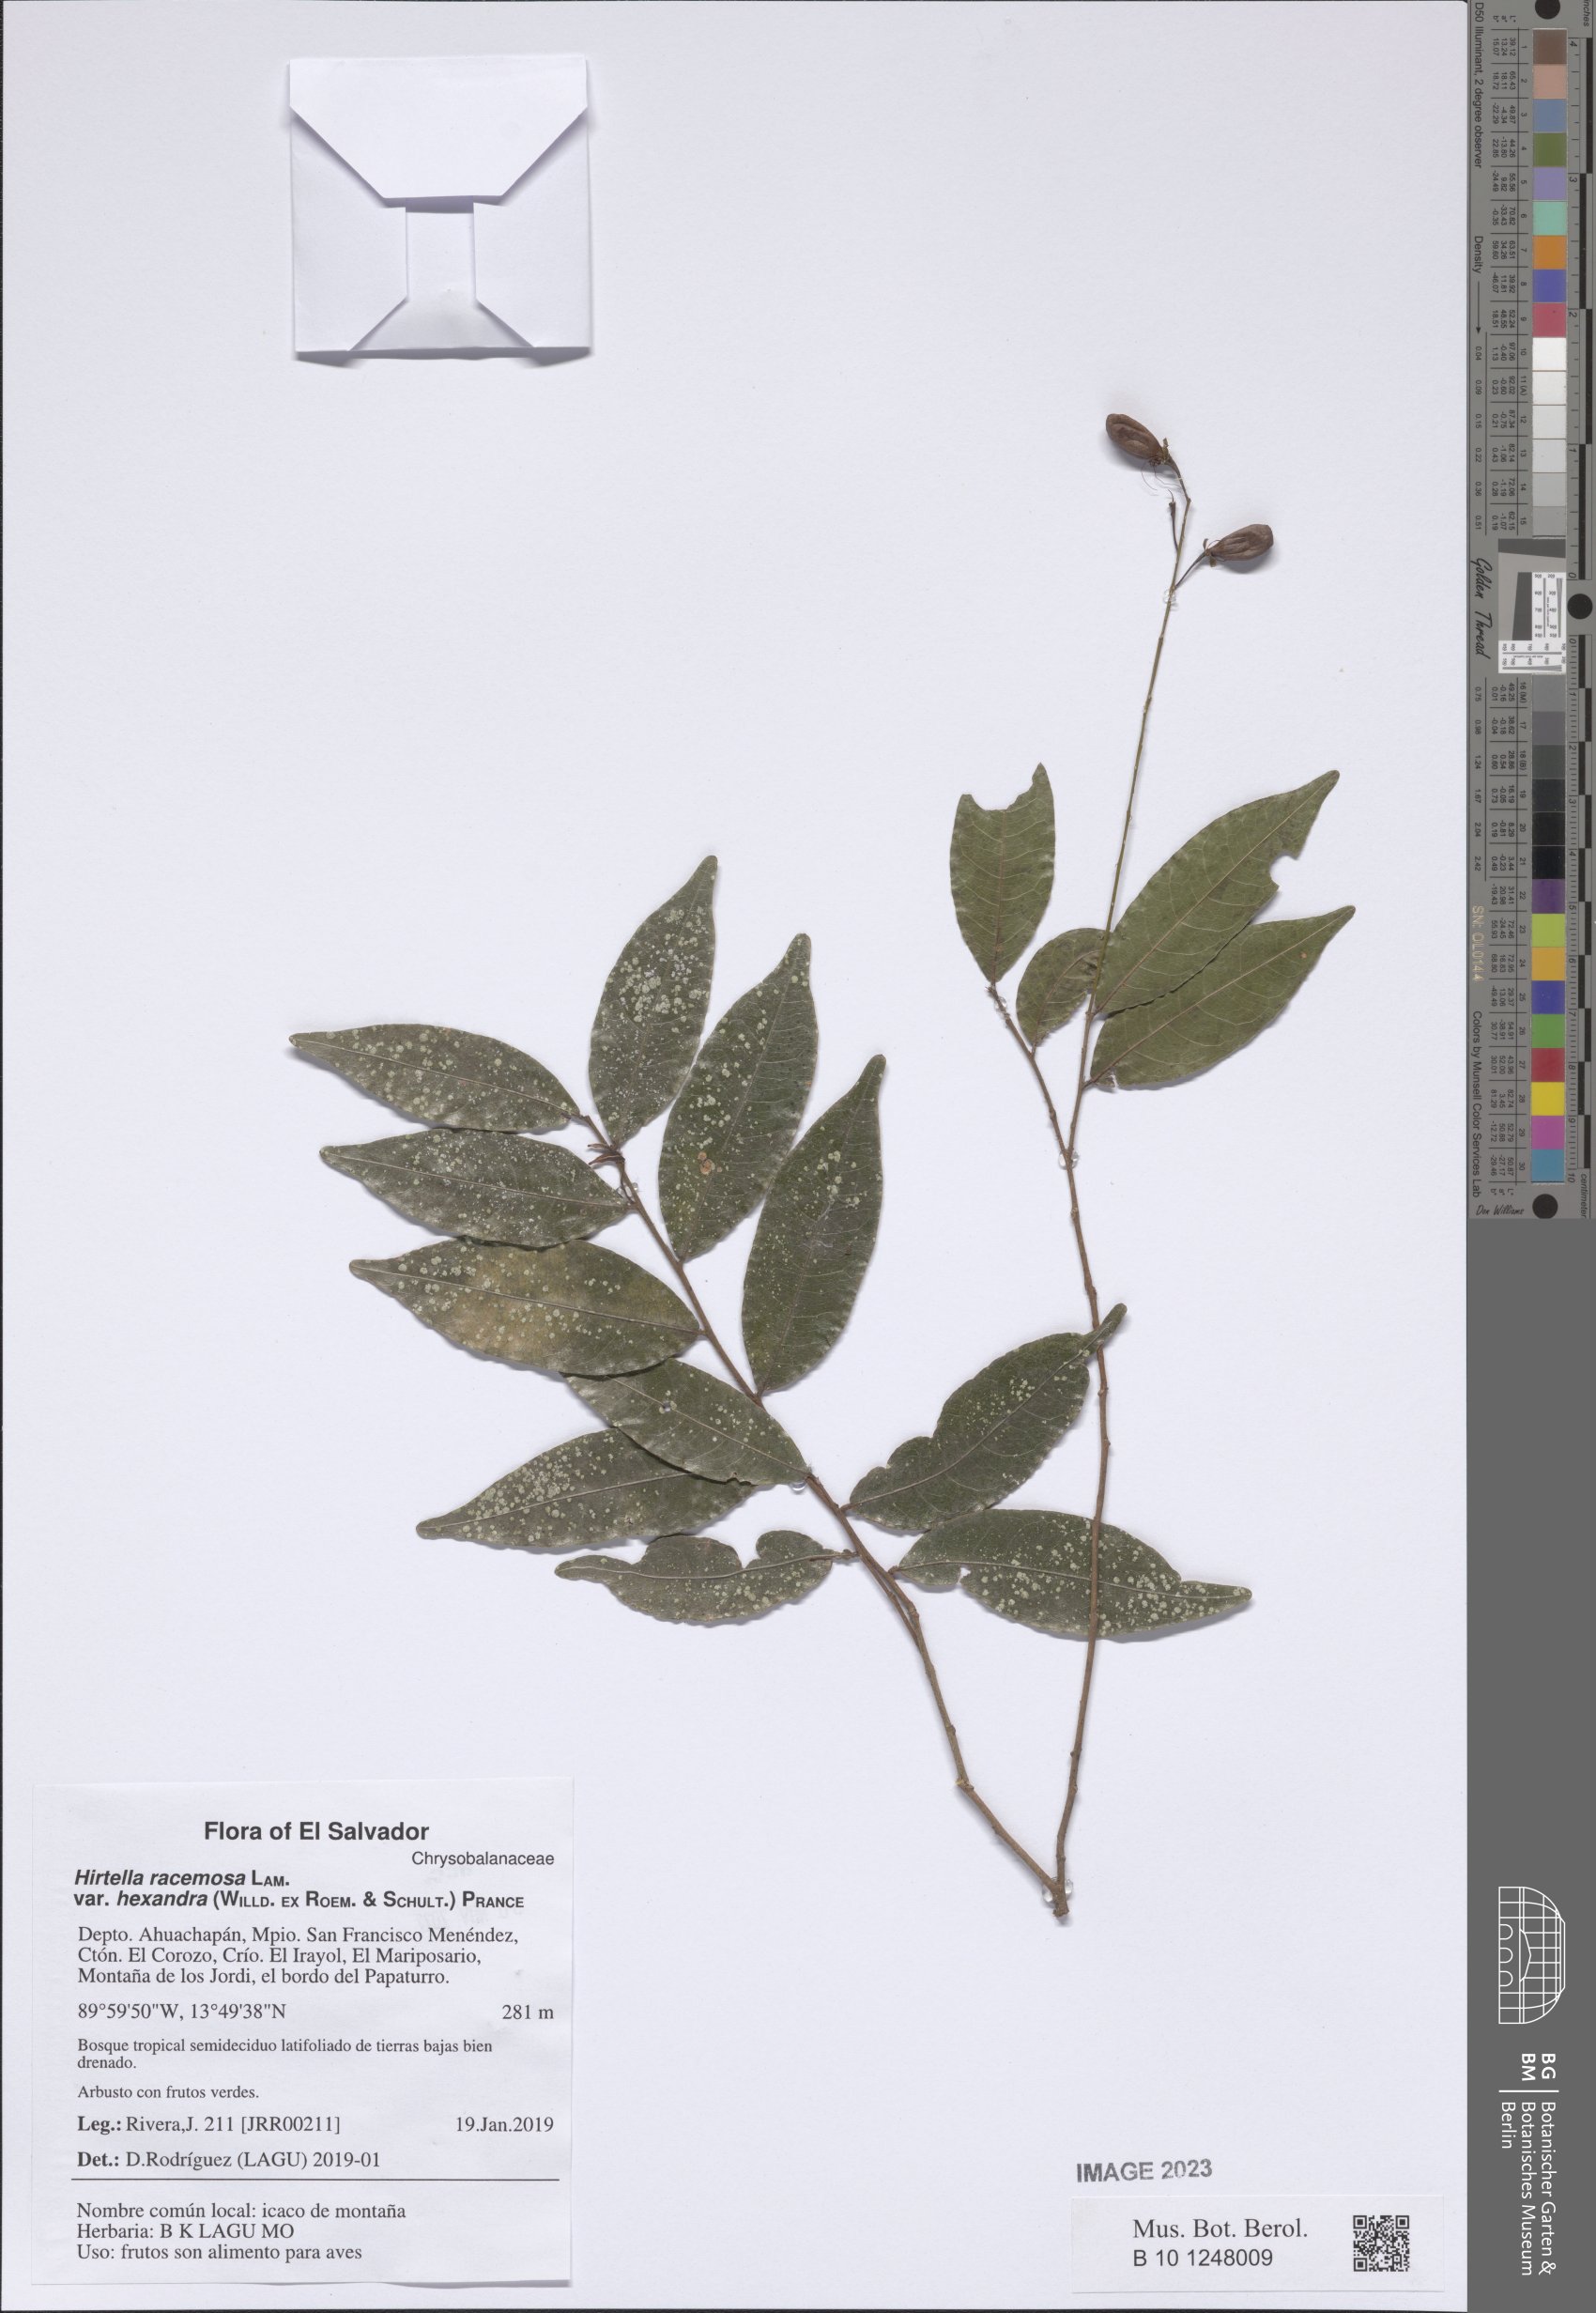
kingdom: Plantae
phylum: Tracheophyta
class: Magnoliopsida
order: Malpighiales
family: Chrysobalanaceae
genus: Hirtella
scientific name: Hirtella racemosa
